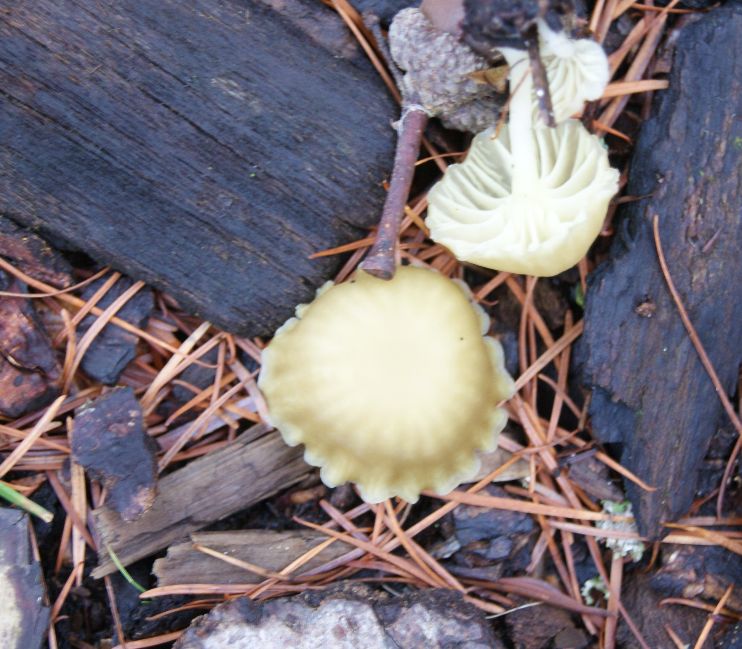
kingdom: Fungi
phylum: Basidiomycota
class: Agaricomycetes
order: Agaricales
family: Hygrophoraceae
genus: Chrysomphalina
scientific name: Chrysomphalina grossula
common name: stød-gyldenblad
